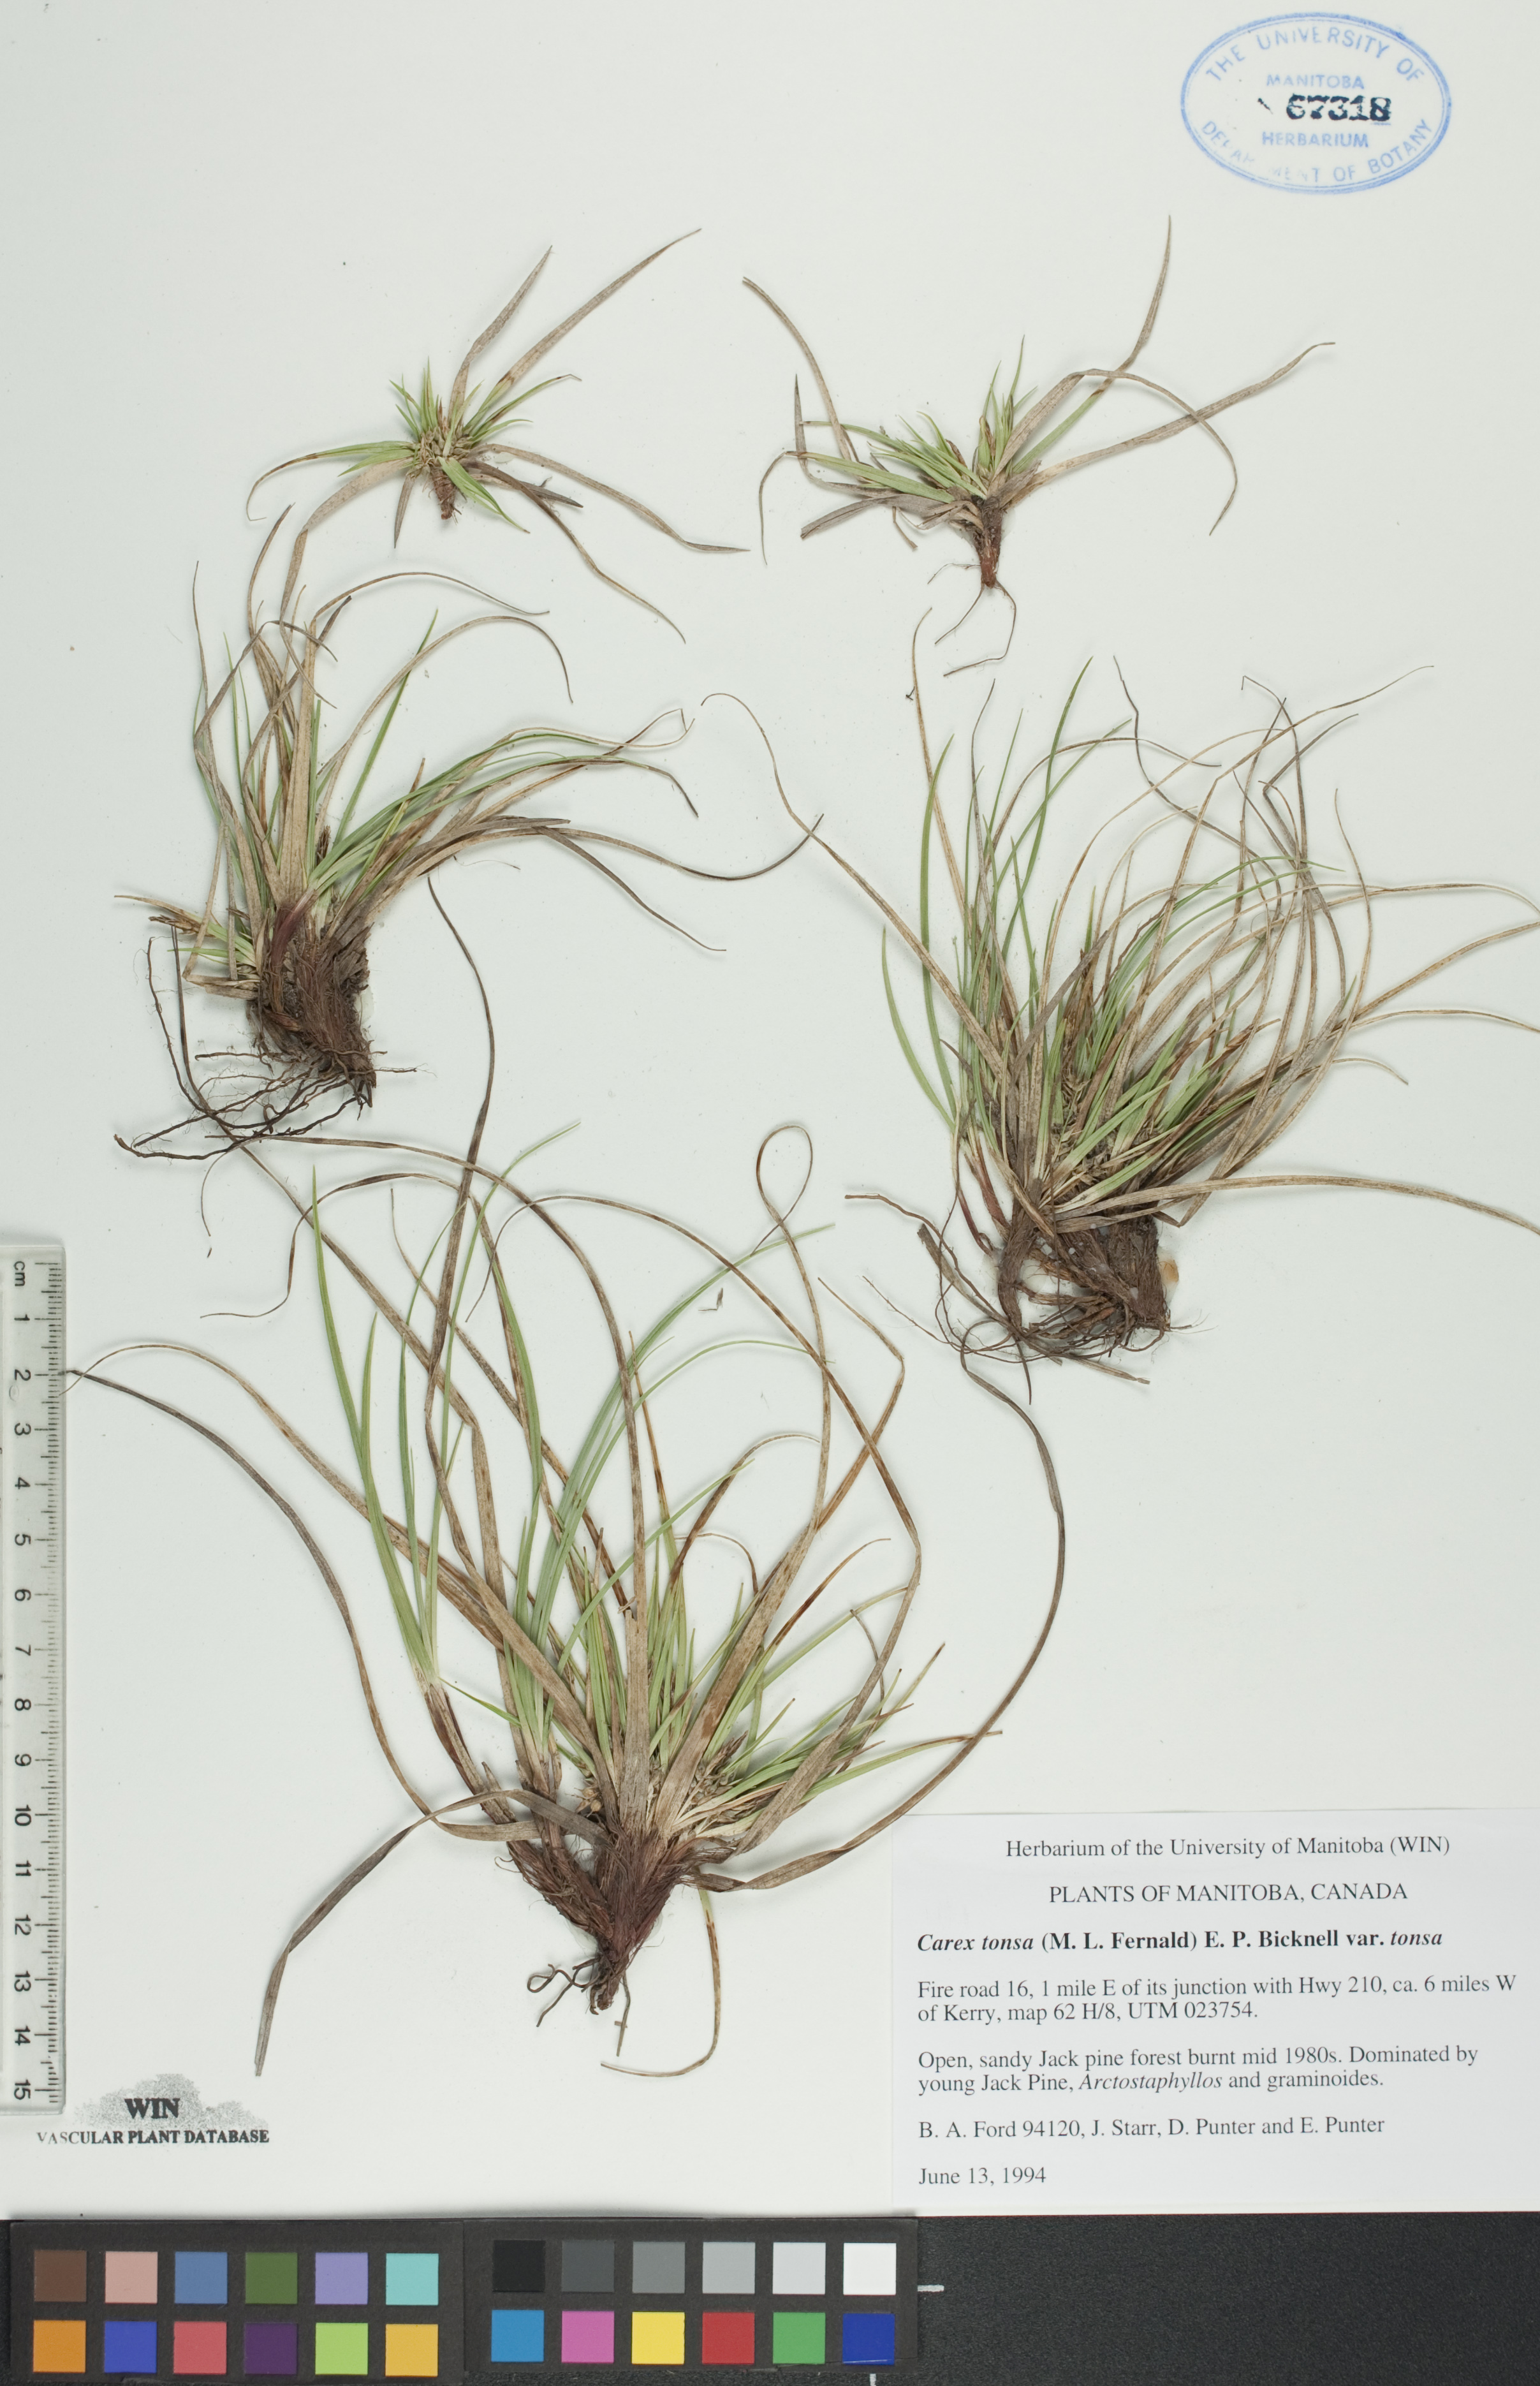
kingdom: Plantae
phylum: Tracheophyta
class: Liliopsida
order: Poales
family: Cyperaceae
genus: Carex
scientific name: Carex tonsa
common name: Bald sedge
